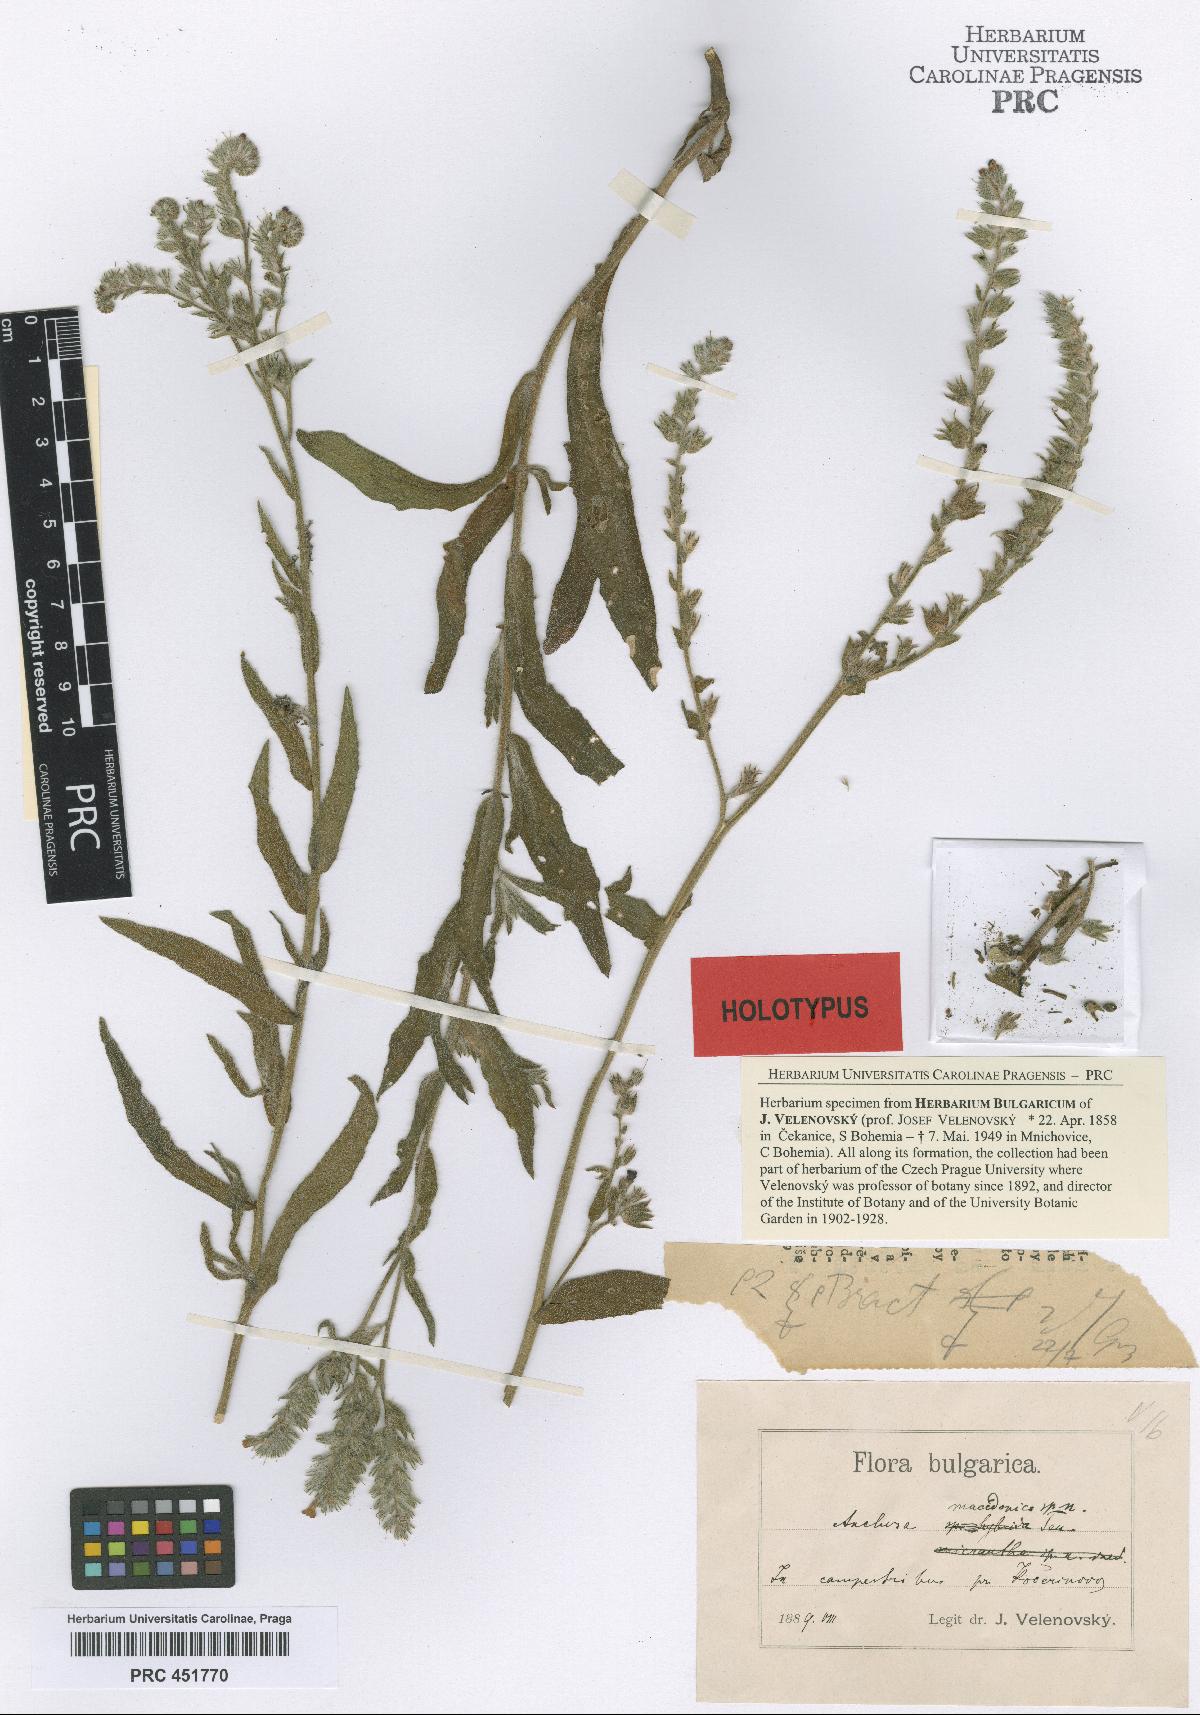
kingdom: Plantae
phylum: Tracheophyta
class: Magnoliopsida
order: Boraginales
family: Boraginaceae
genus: Anchusa
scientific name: Anchusa officinalis
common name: Alkanet
